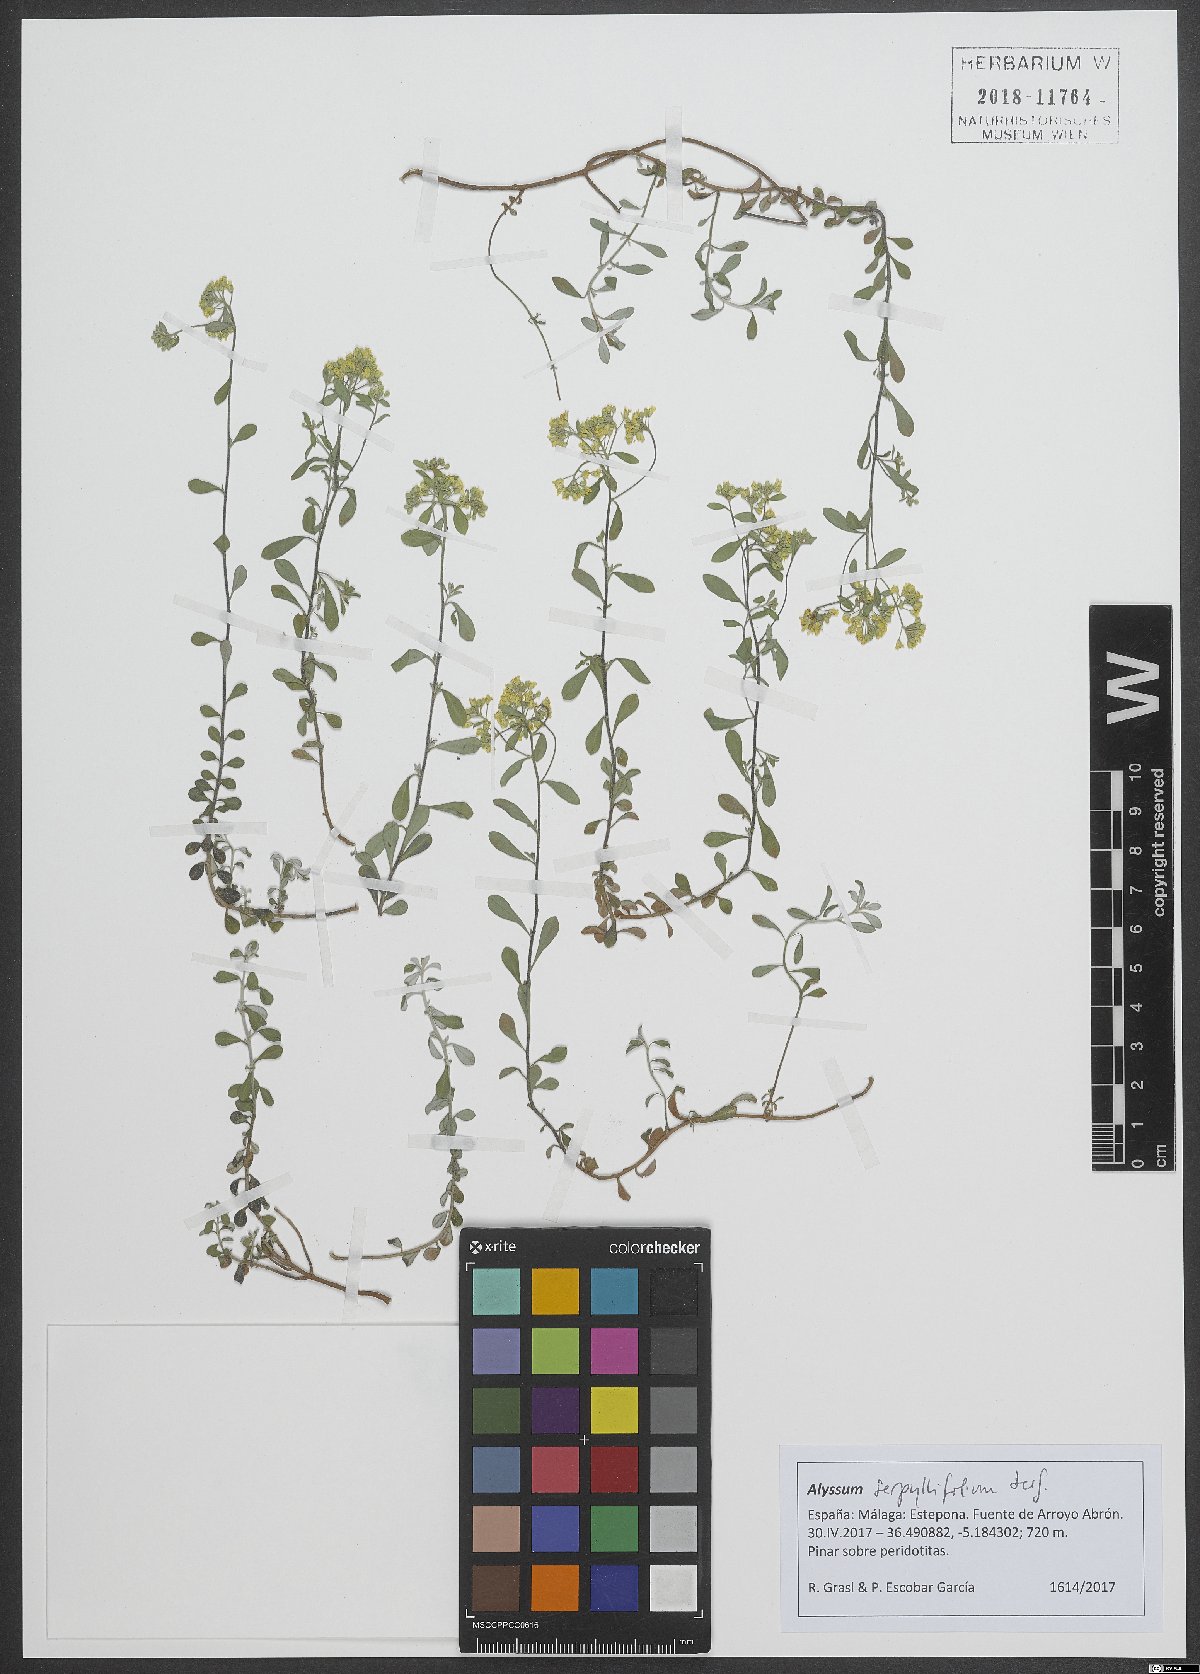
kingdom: Plantae
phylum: Tracheophyta
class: Magnoliopsida
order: Brassicales
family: Brassicaceae
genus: Odontarrhena
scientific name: Odontarrhena serpyllifolia
